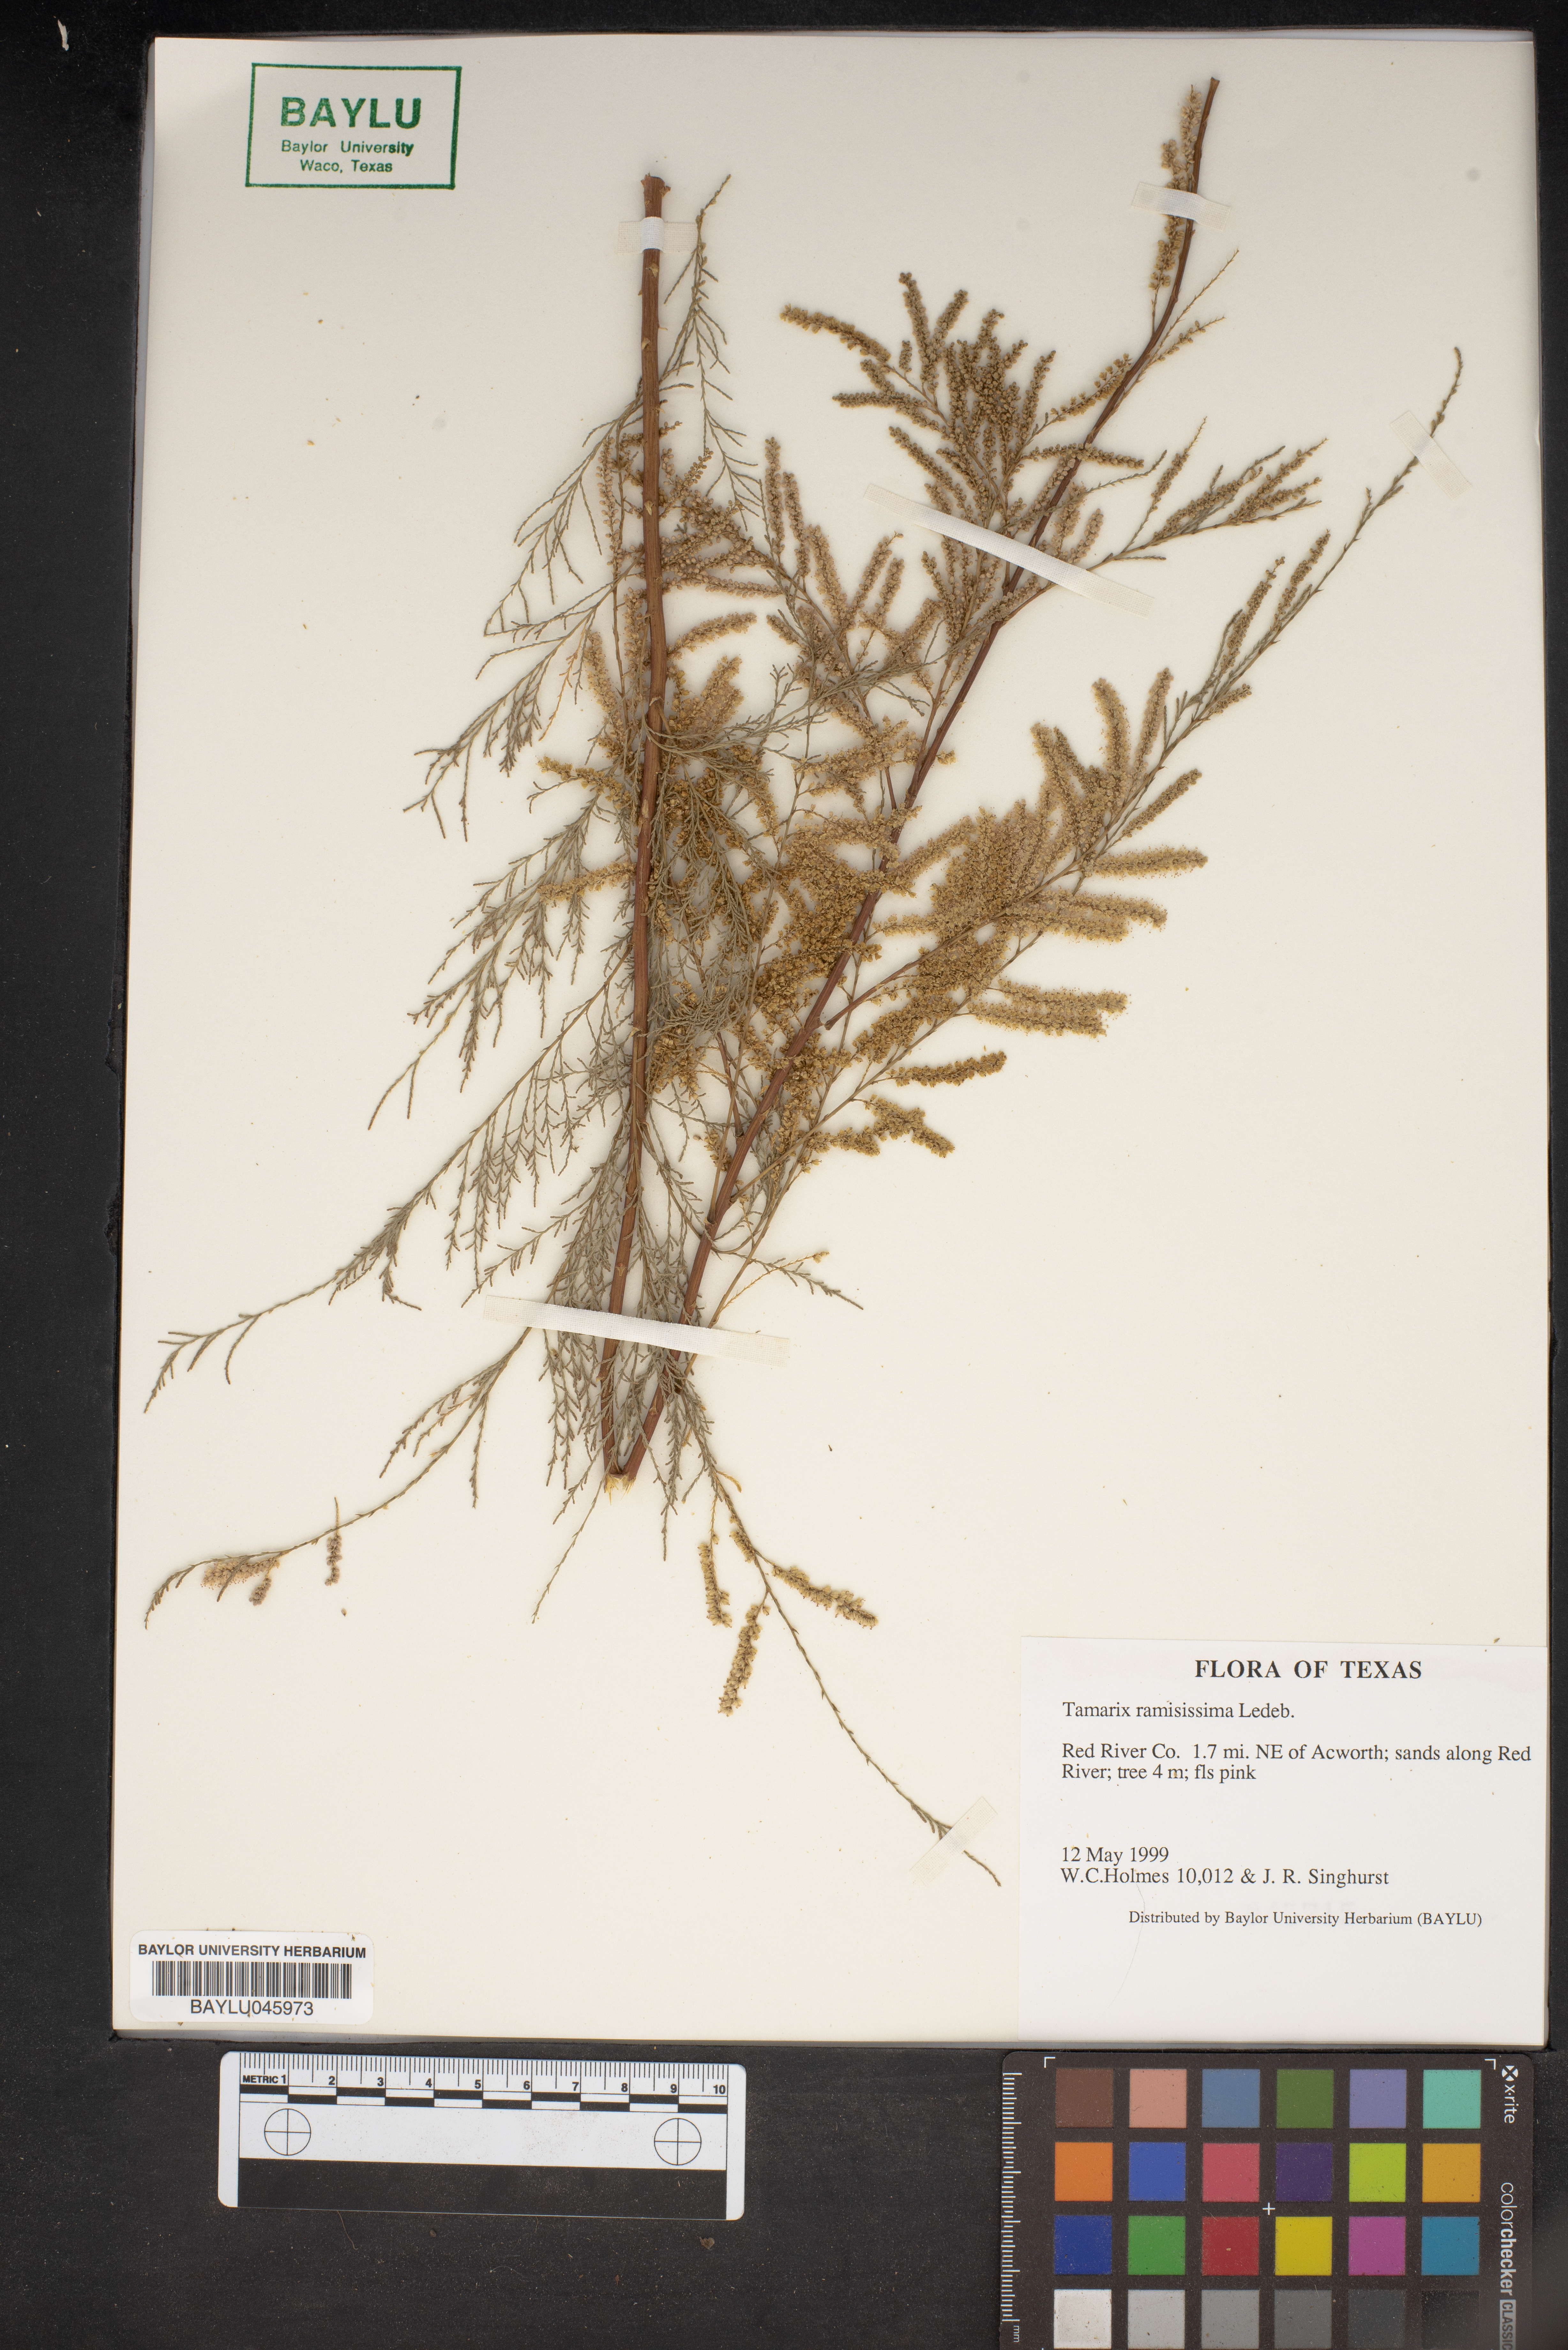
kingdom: Plantae
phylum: Tracheophyta
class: Magnoliopsida
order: Caryophyllales
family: Tamaricaceae
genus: Tamarix
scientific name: Tamarix ramosissima
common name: Pink tamarisk
